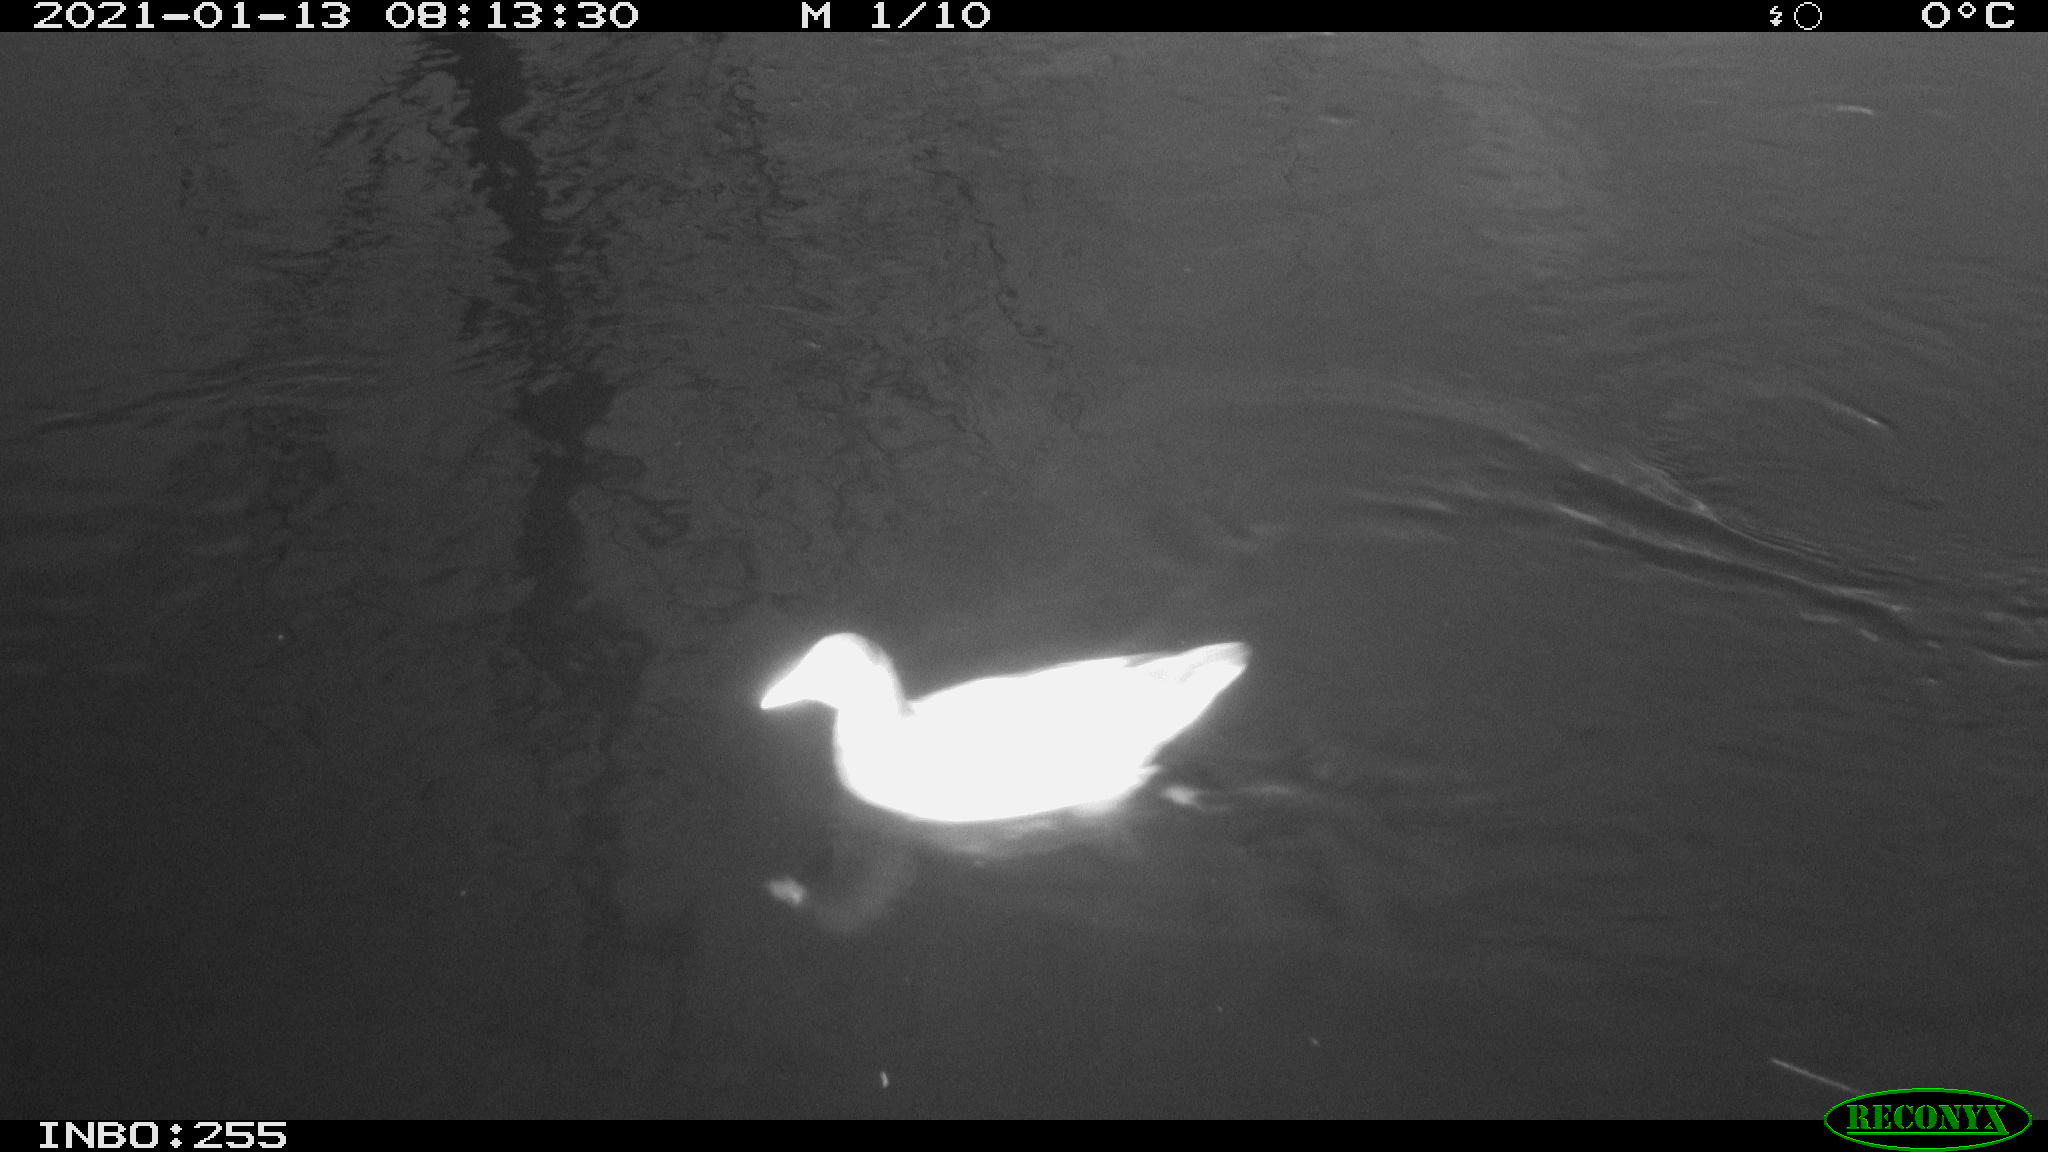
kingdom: Animalia
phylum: Chordata
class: Aves
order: Gruiformes
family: Rallidae
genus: Gallinula
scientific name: Gallinula chloropus
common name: Common moorhen
